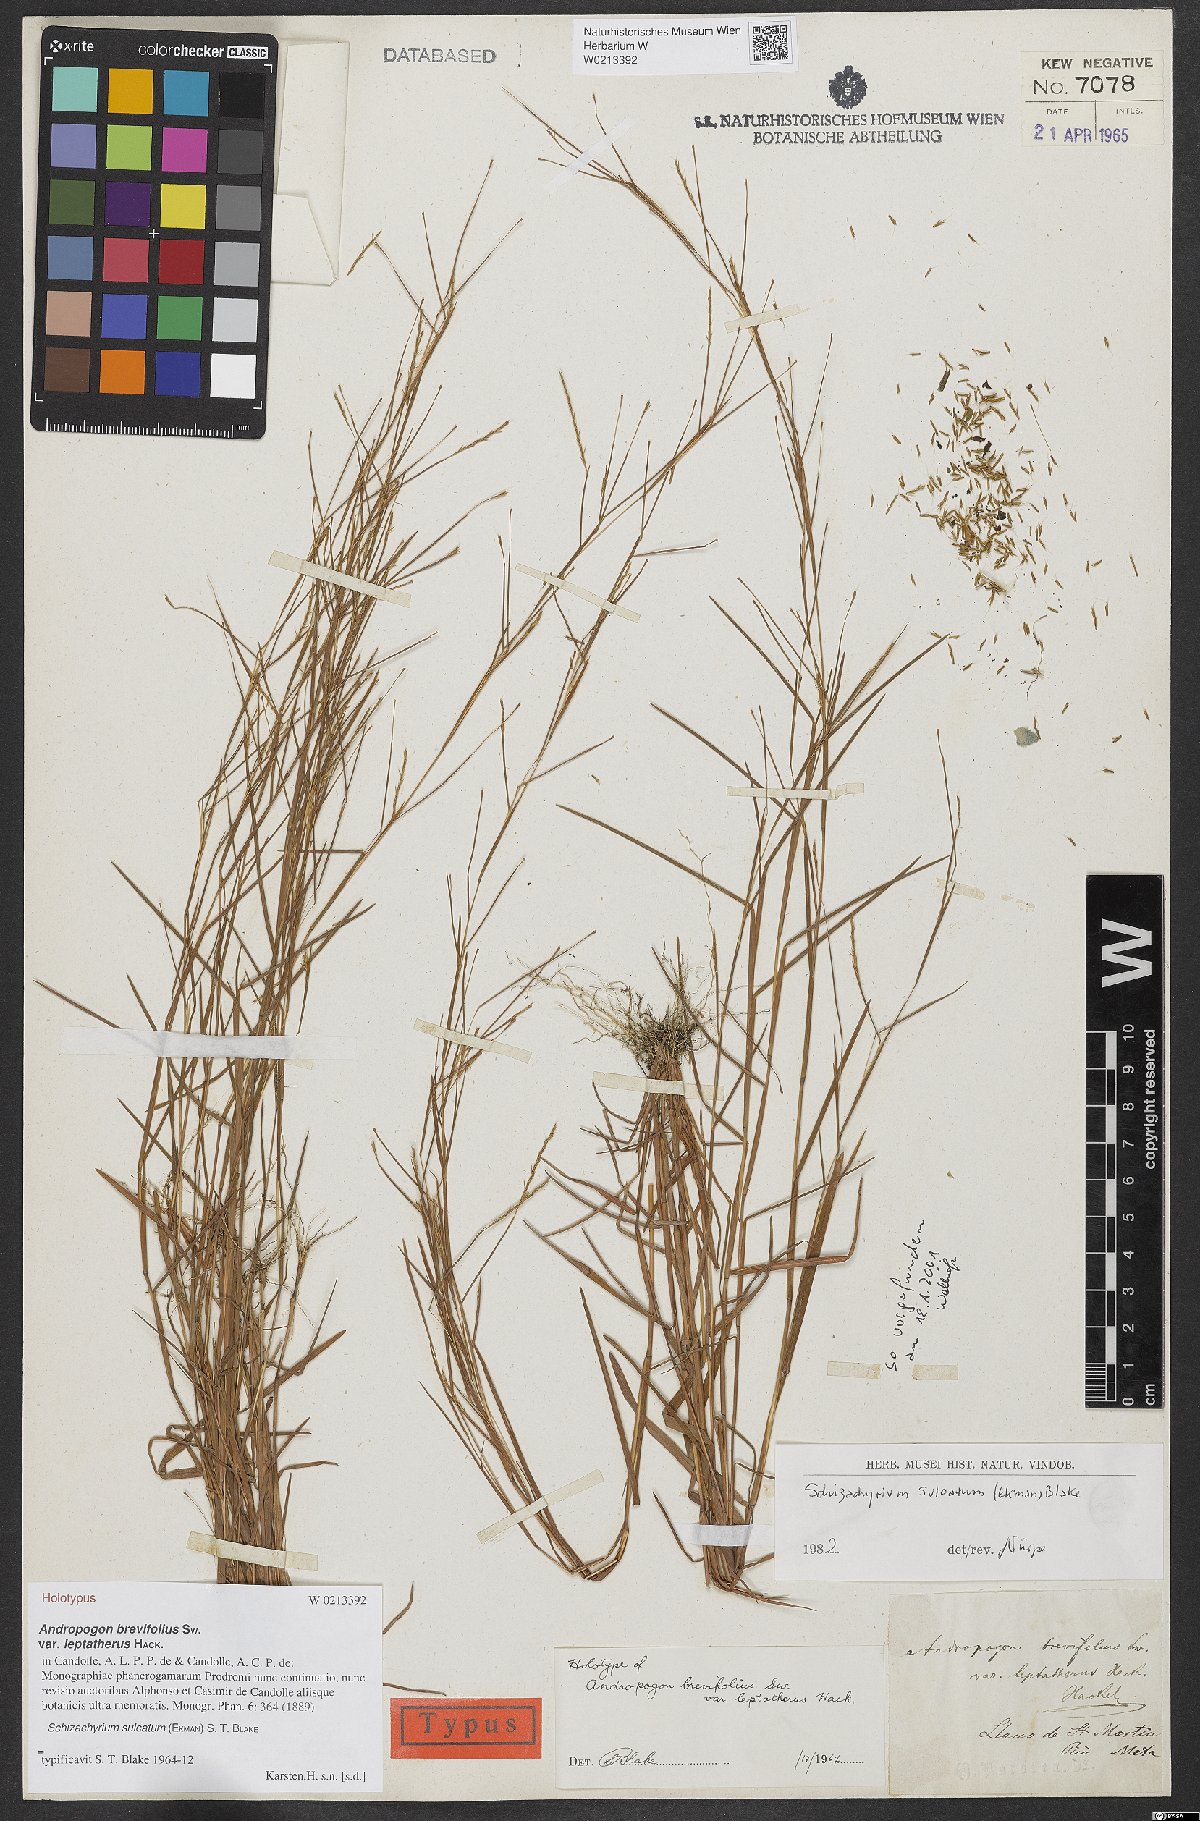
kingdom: Plantae
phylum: Tracheophyta
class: Liliopsida
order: Poales
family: Poaceae
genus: Schizachyrium
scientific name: Schizachyrium sulcatum
